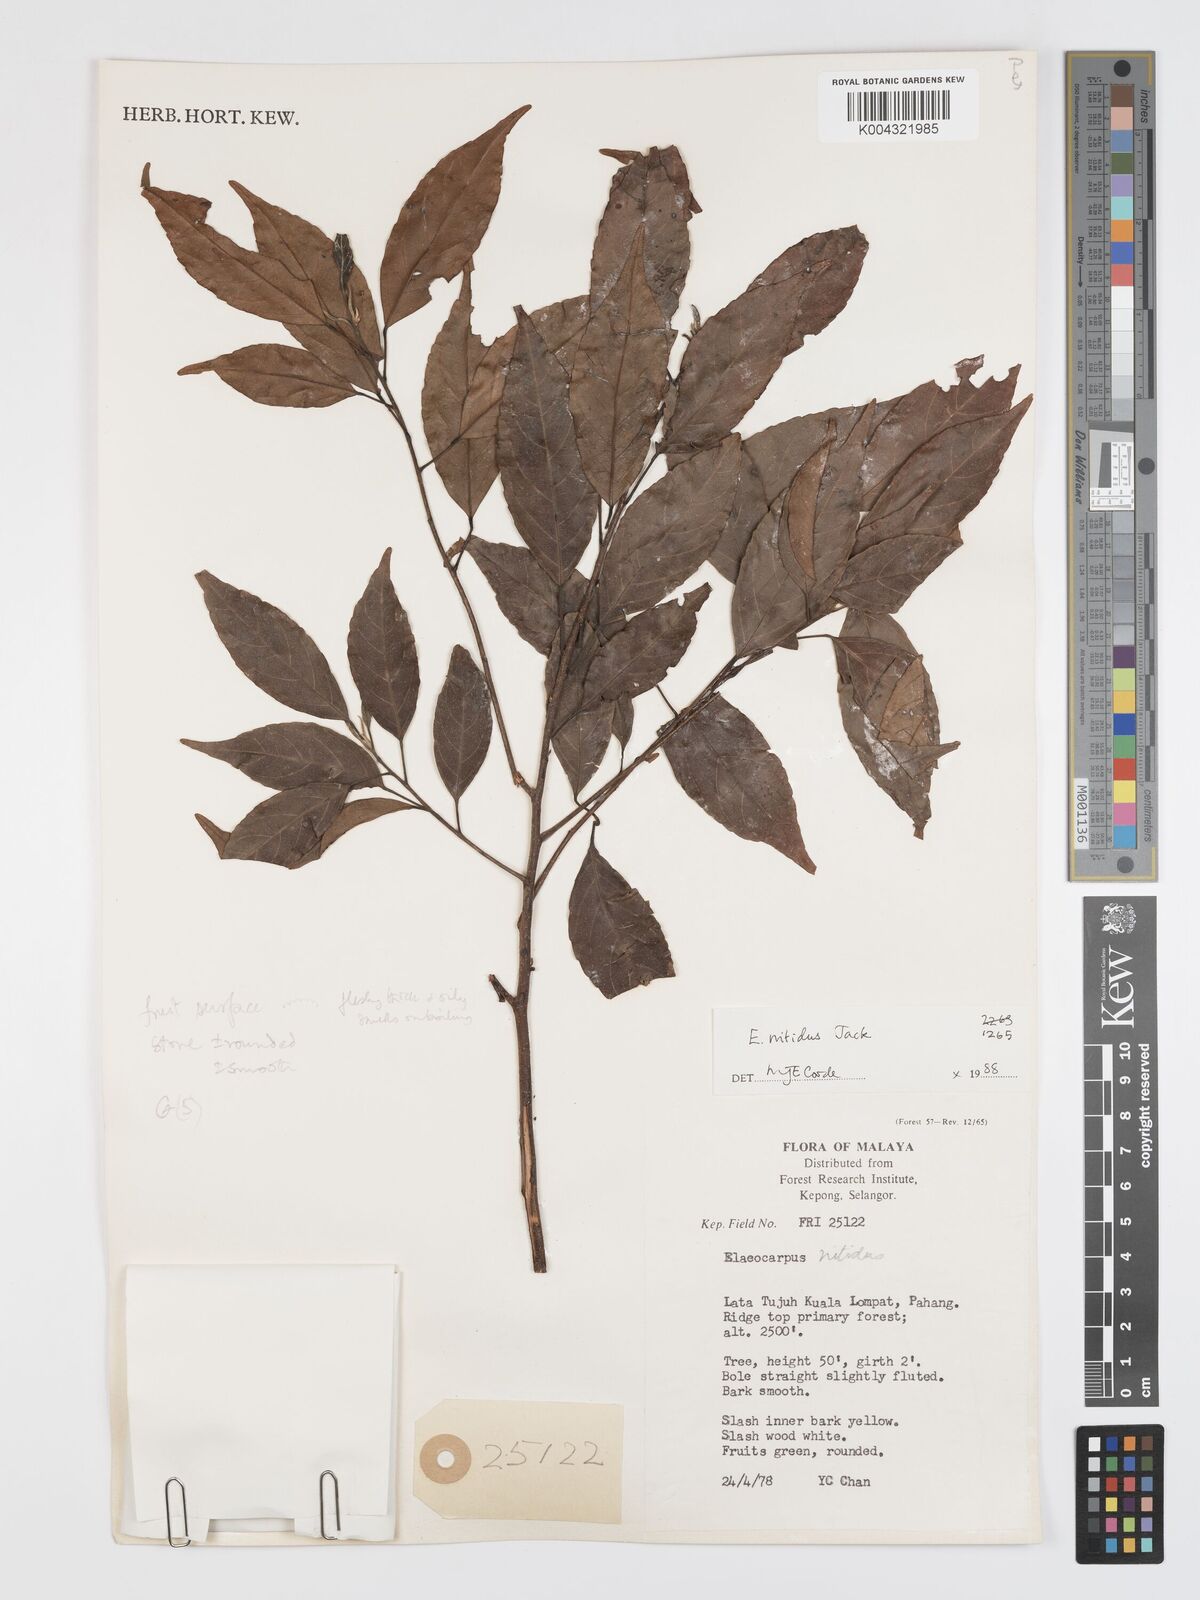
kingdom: Plantae
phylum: Tracheophyta
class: Magnoliopsida
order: Oxalidales
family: Elaeocarpaceae
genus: Elaeocarpus
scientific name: Elaeocarpus nitidus
